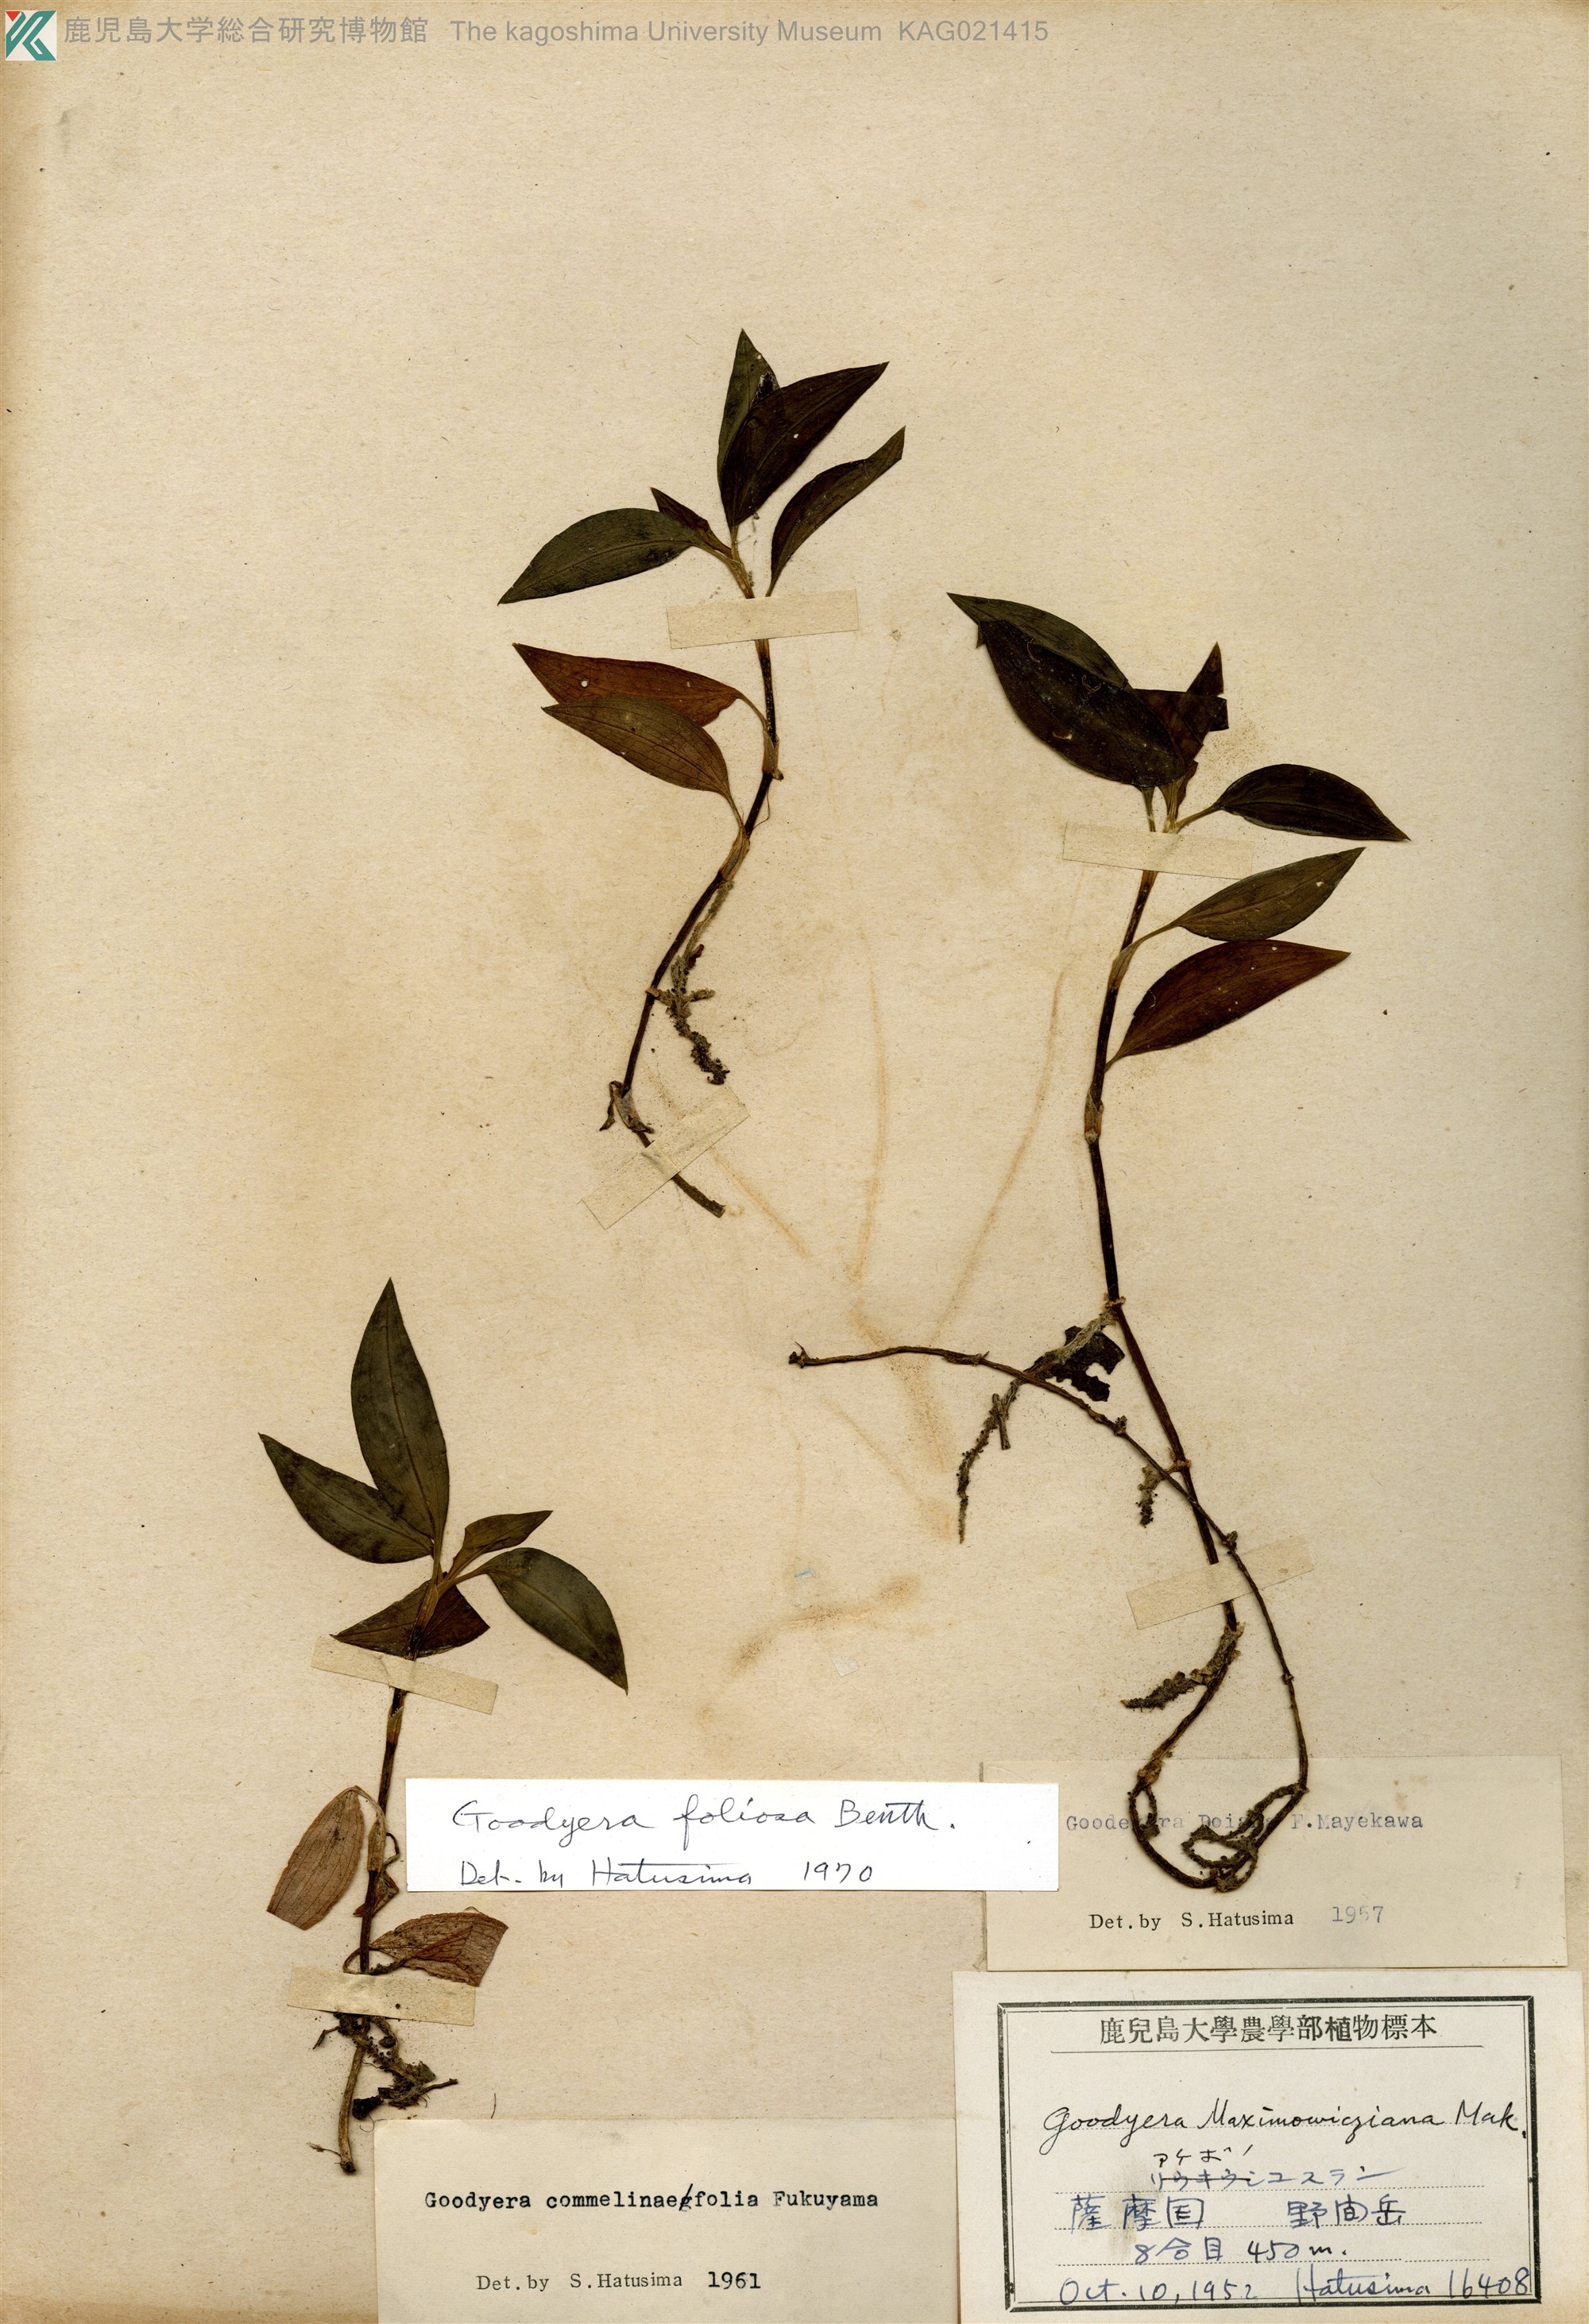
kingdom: Plantae
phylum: Tracheophyta
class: Liliopsida
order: Asparagales
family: Orchidaceae
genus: Goodyera
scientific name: Goodyera foliosa
